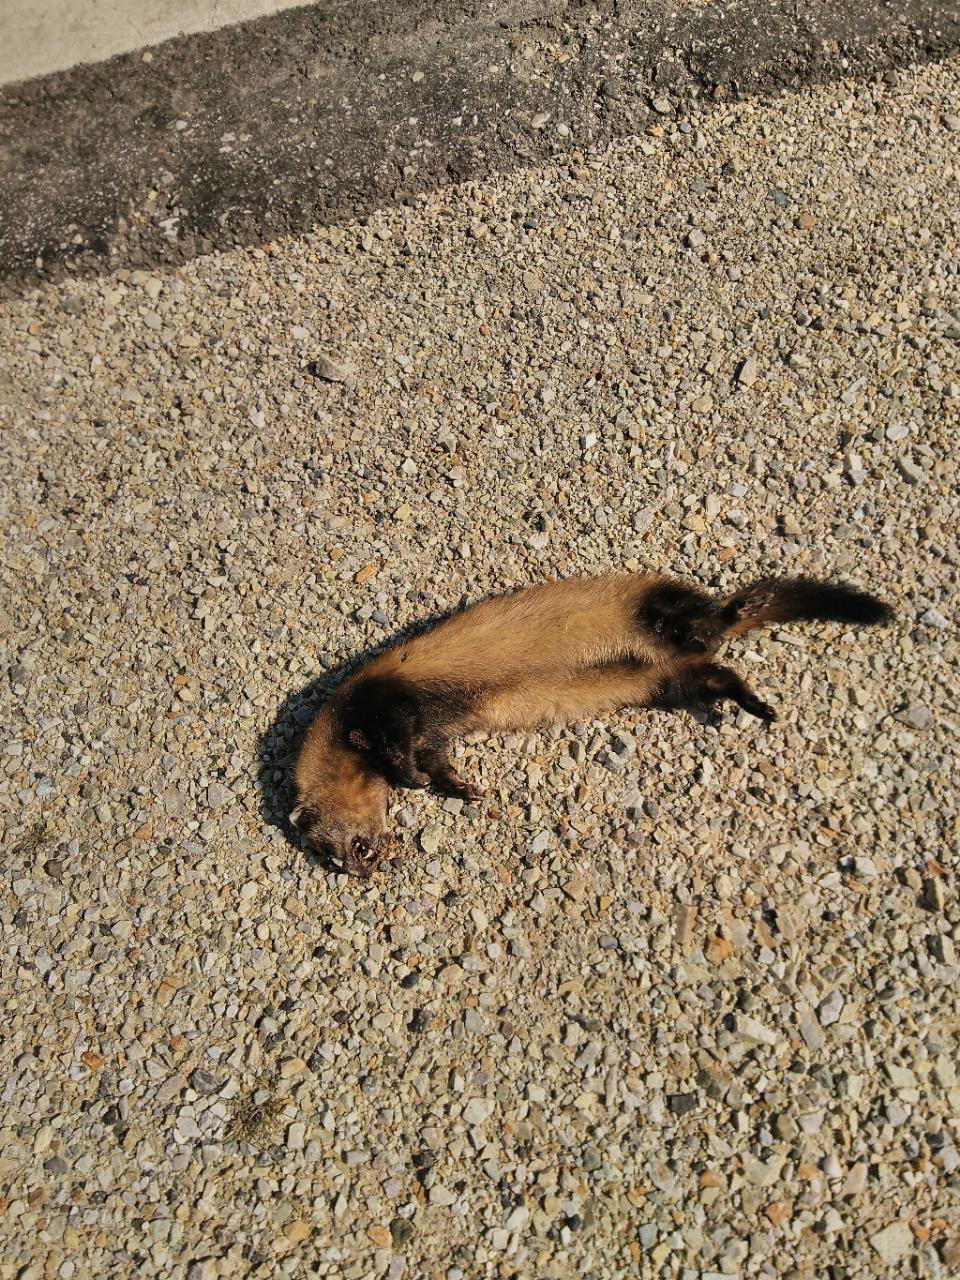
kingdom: Animalia
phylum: Chordata
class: Mammalia
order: Carnivora
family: Mustelidae
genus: Mustela
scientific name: Mustela eversmanii
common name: Steppe polecat
